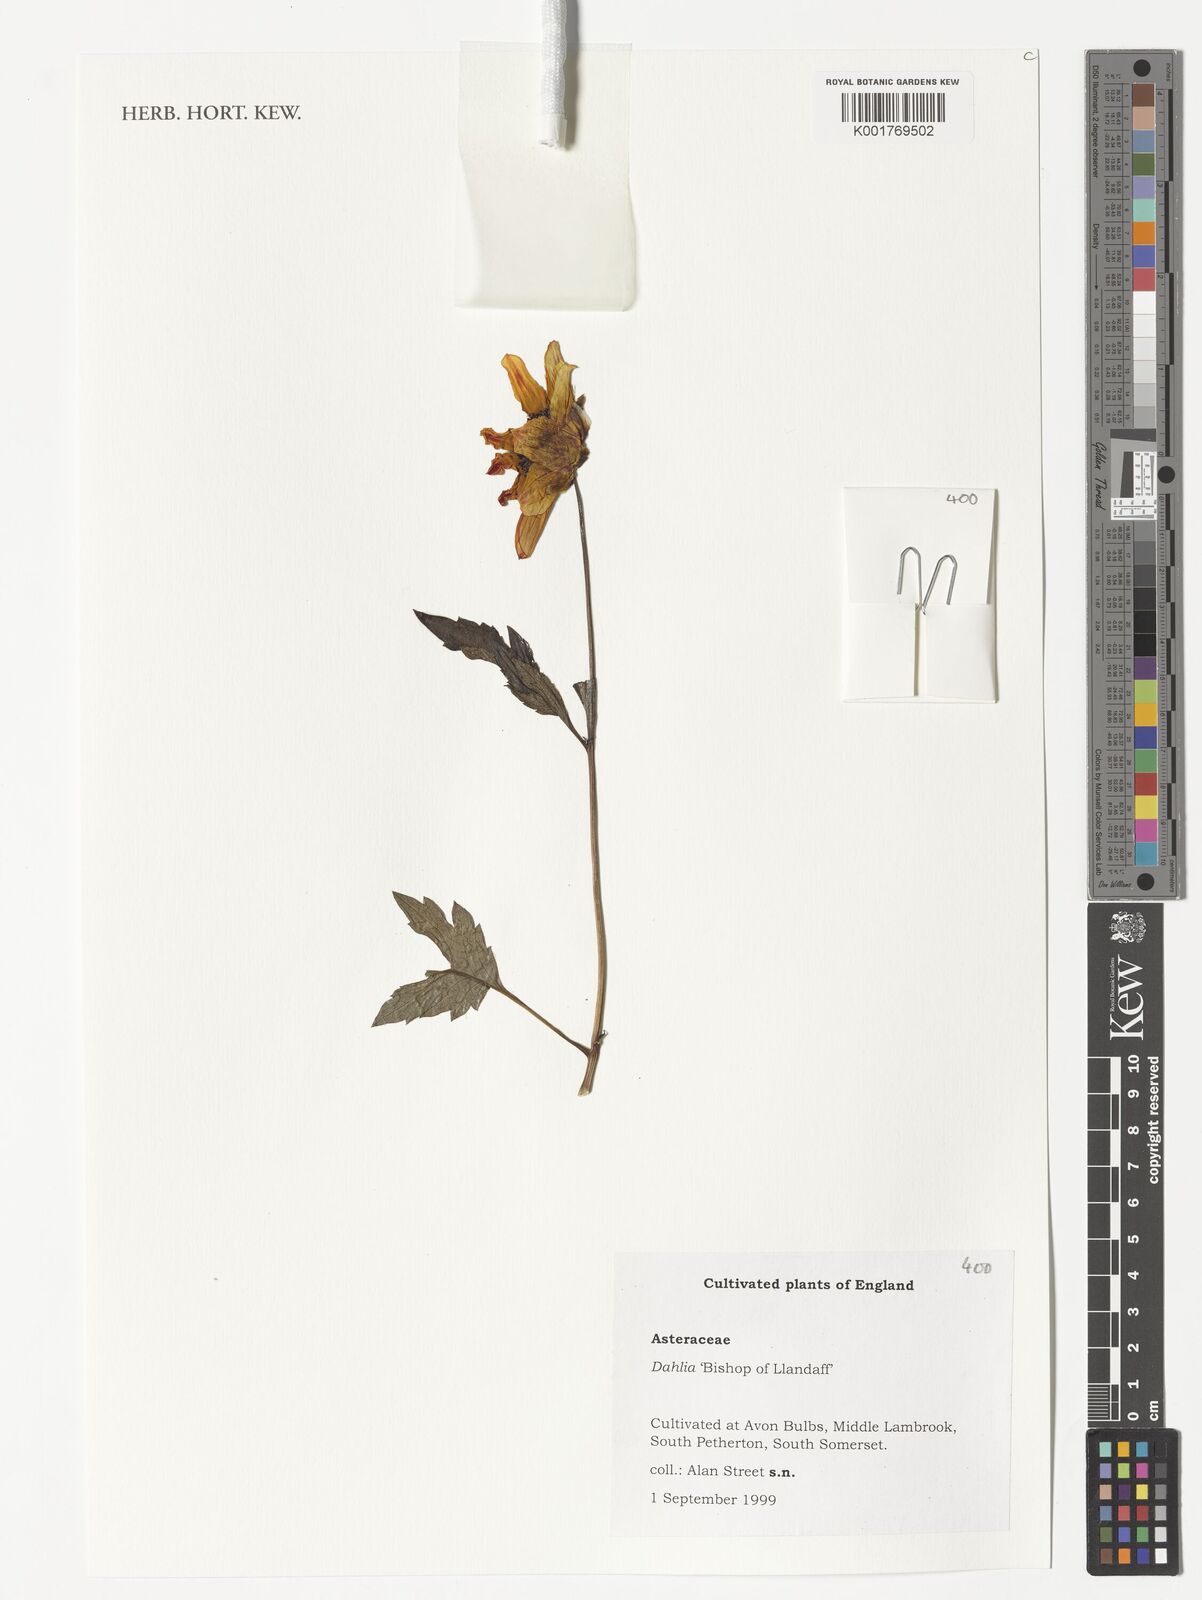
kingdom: Plantae
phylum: Tracheophyta
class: Magnoliopsida
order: Asterales
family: Asteraceae
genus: Dahlia
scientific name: Dahlia
